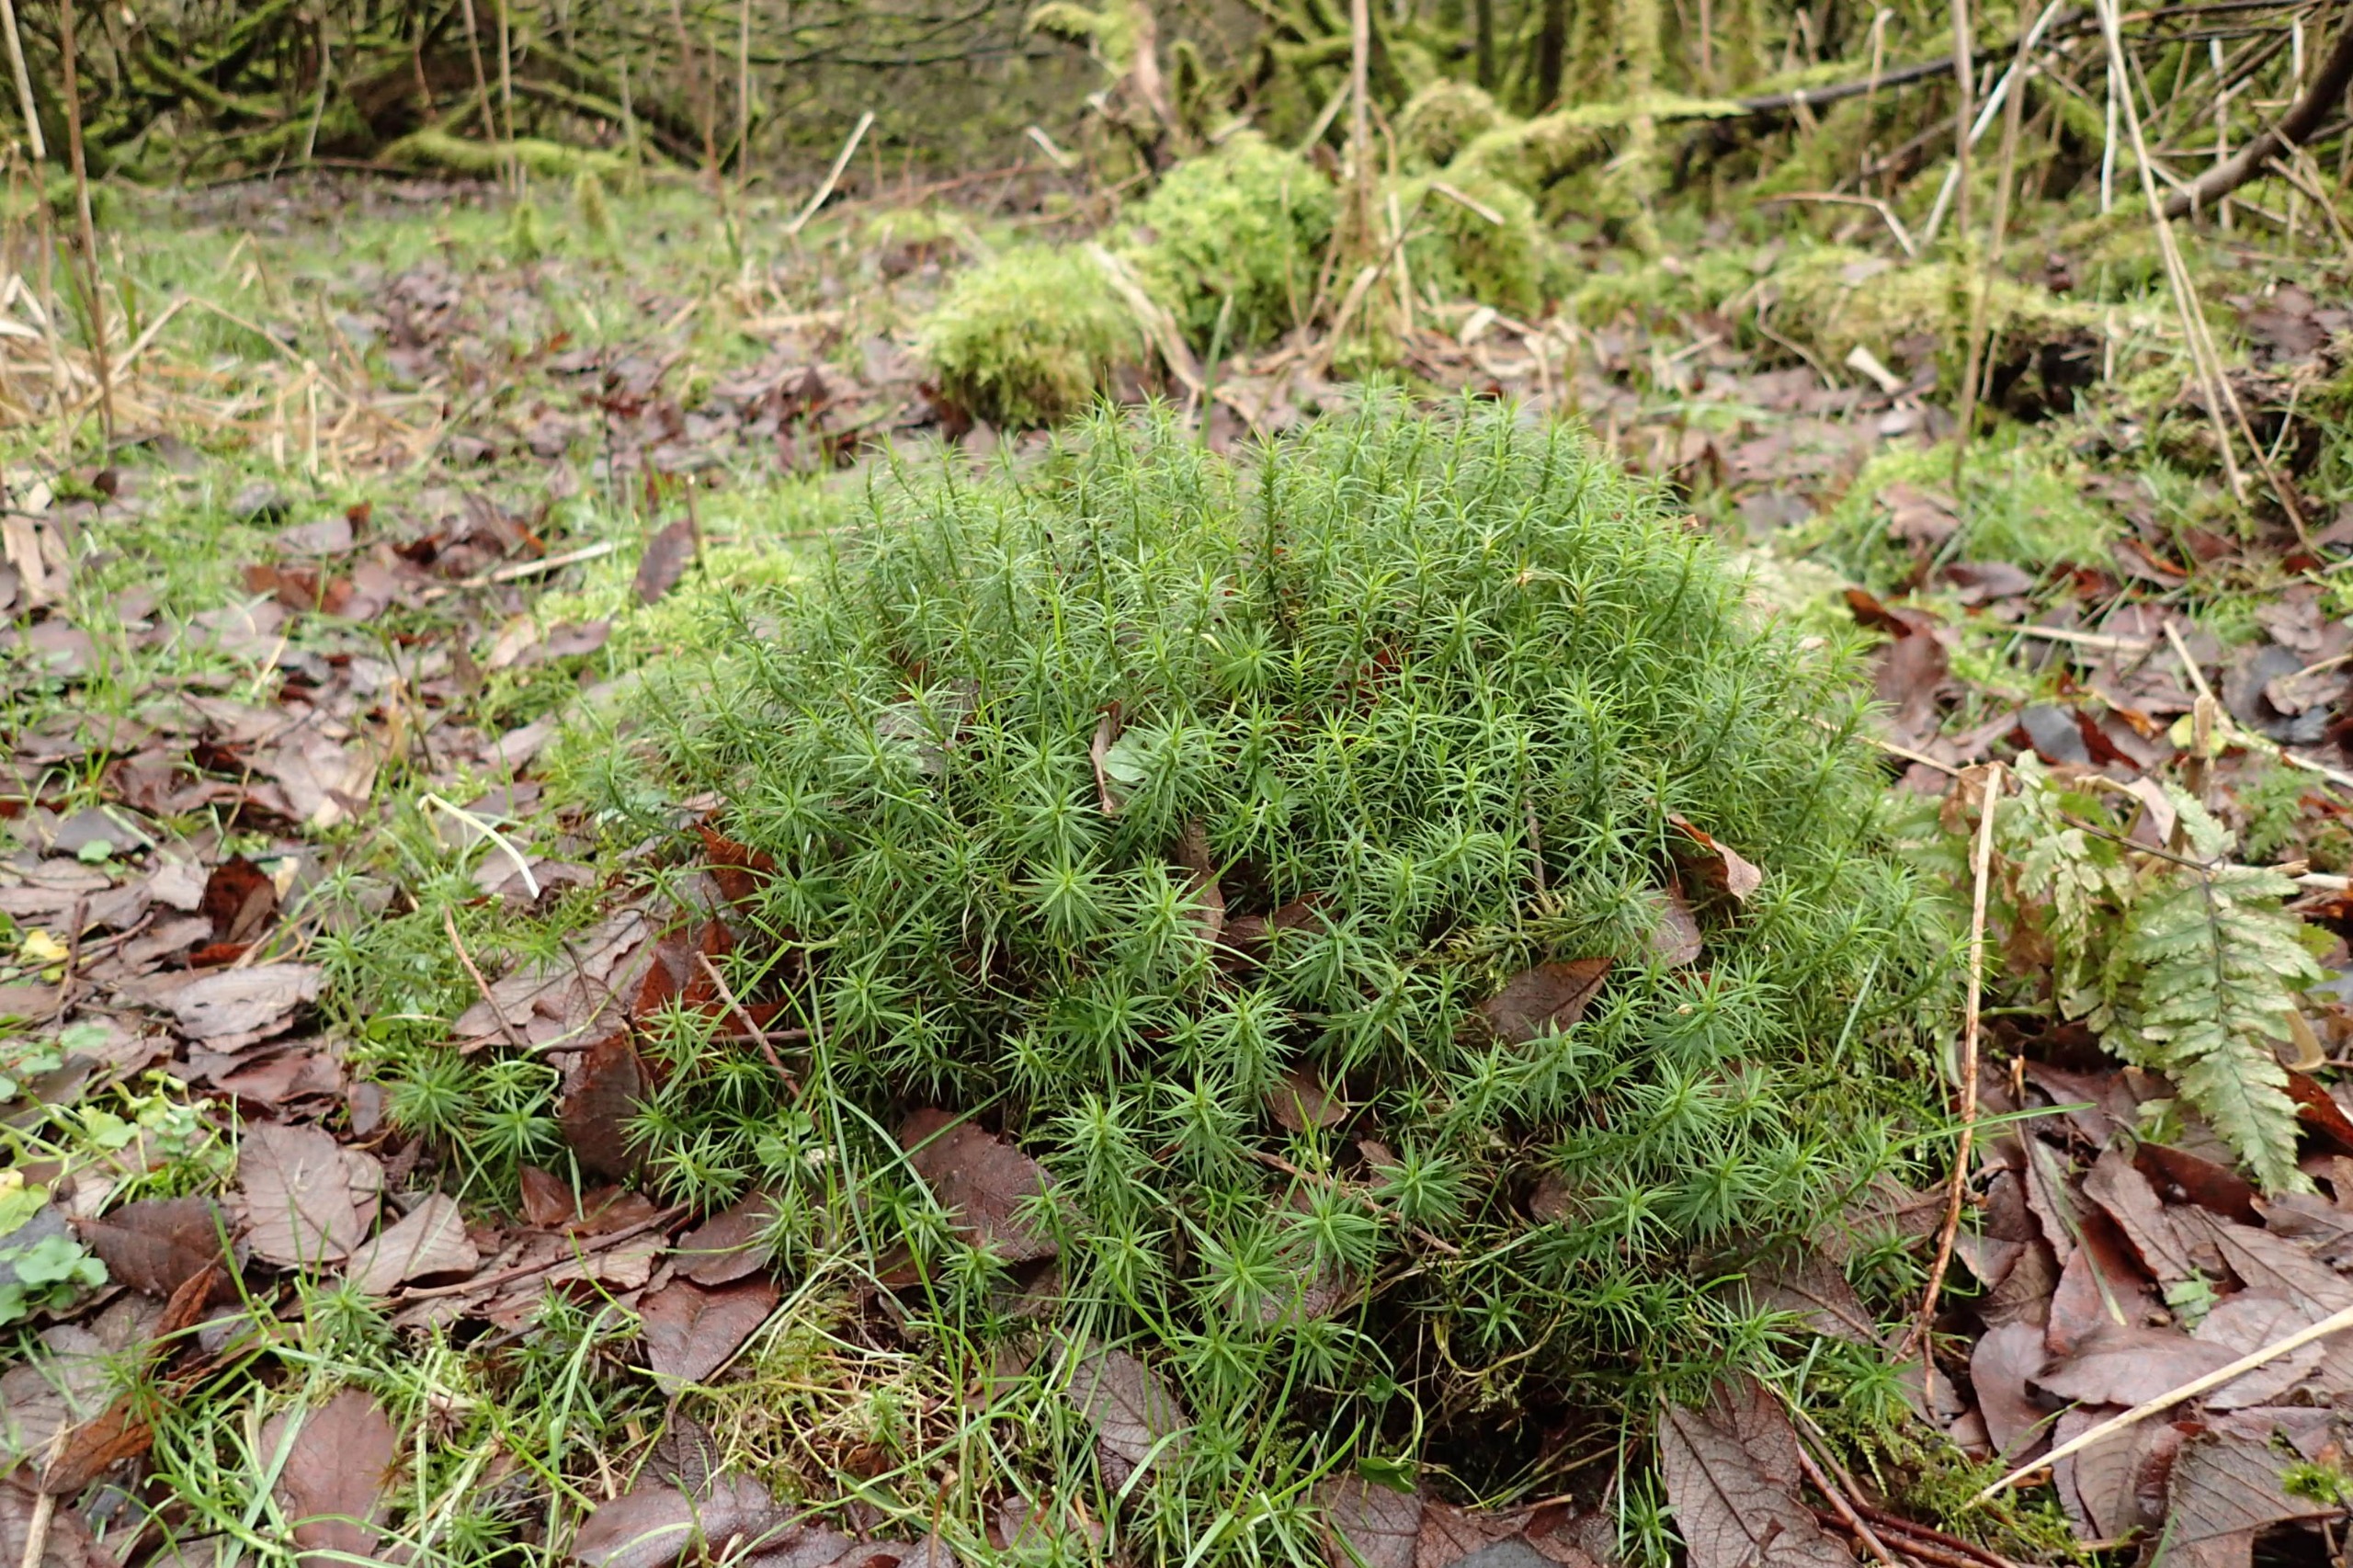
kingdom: Plantae
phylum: Bryophyta
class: Polytrichopsida
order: Polytrichales
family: Polytrichaceae
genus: Polytrichum
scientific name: Polytrichum formosum
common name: Skov-jomfruhår
